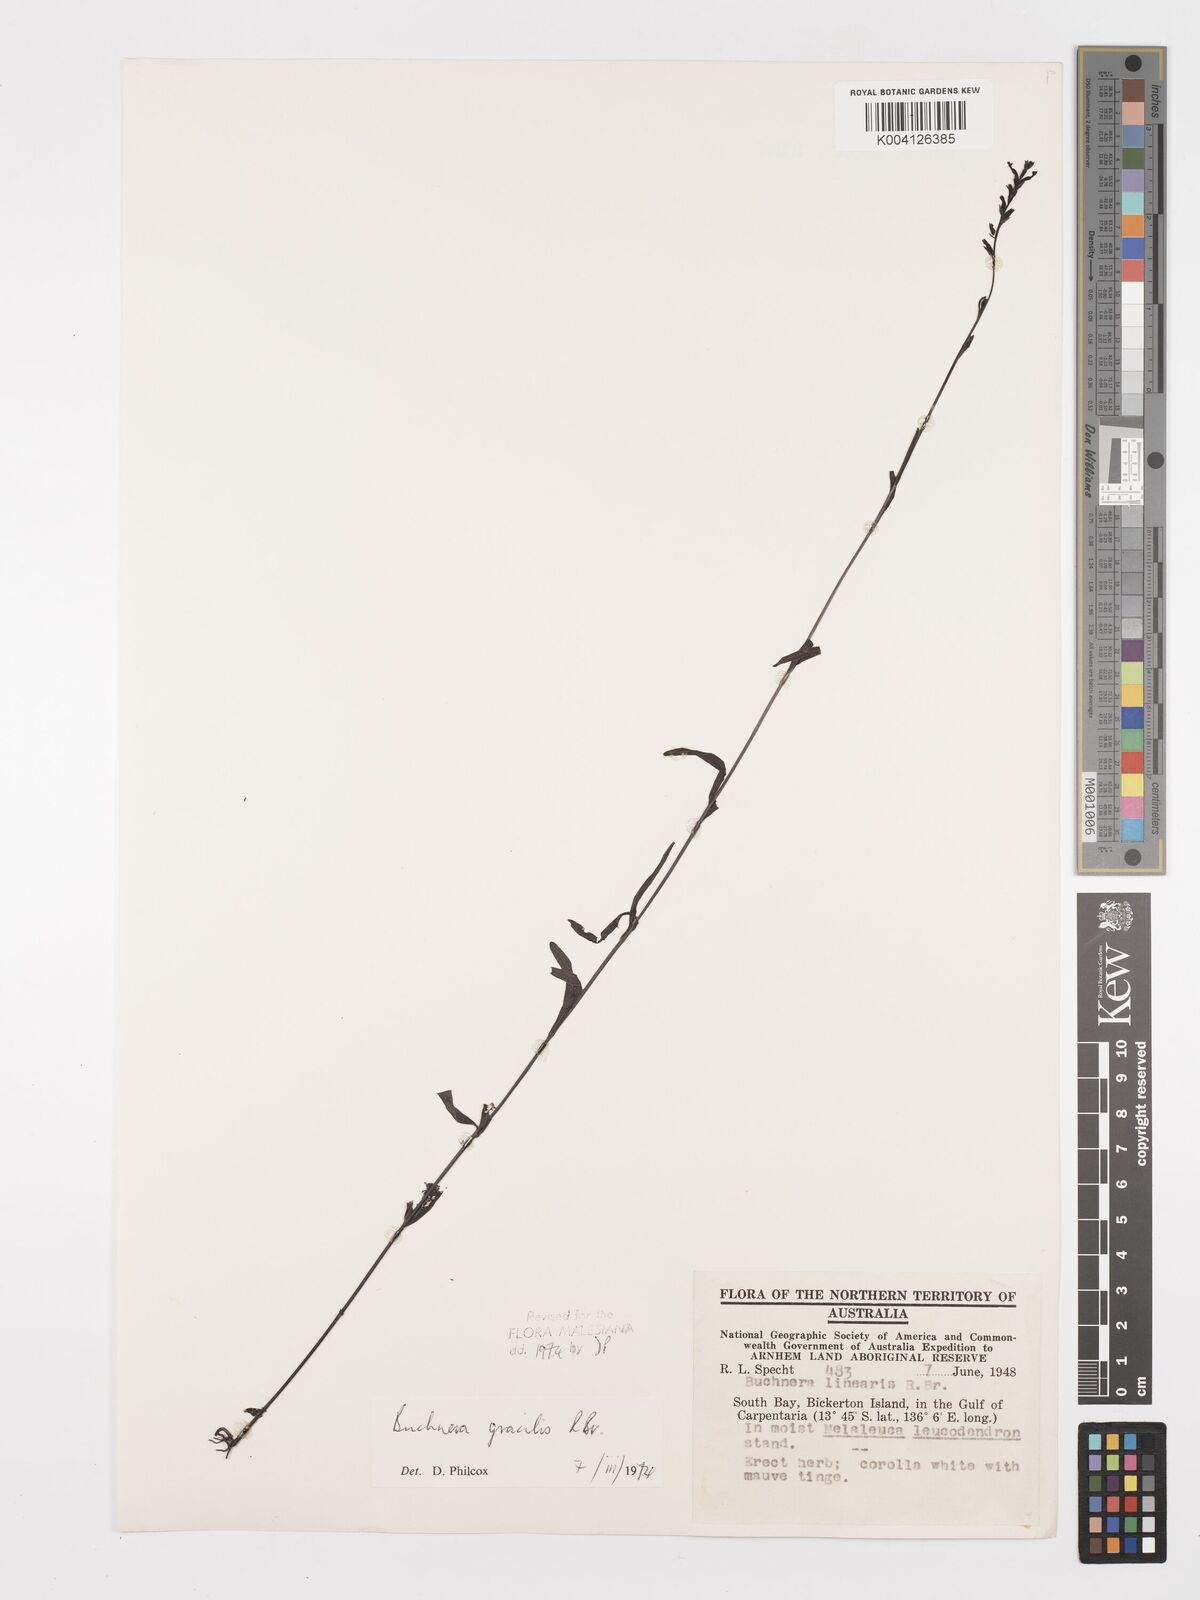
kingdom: Plantae
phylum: Tracheophyta
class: Magnoliopsida
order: Lamiales
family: Orobanchaceae
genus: Buchnera
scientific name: Buchnera gracilis
